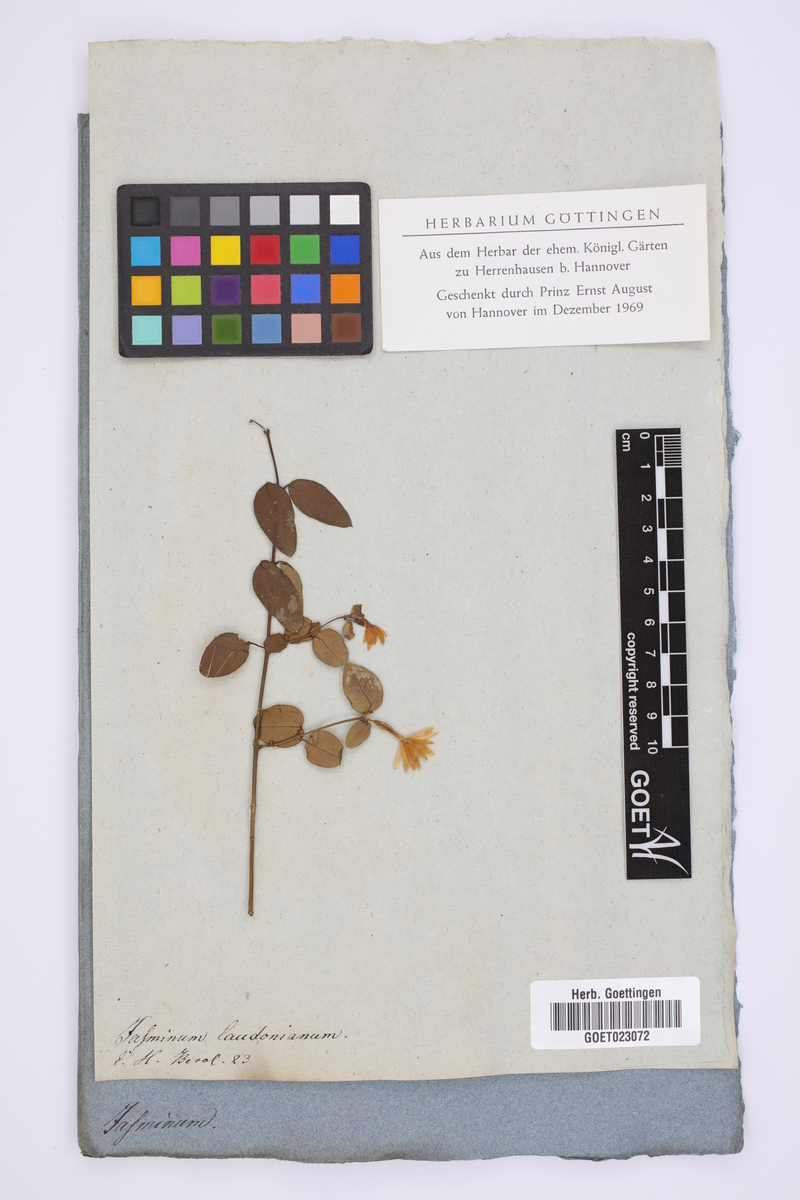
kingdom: Plantae
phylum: Tracheophyta
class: Magnoliopsida
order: Lamiales
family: Oleaceae
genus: Jasminum
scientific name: Jasminum loudonianum
